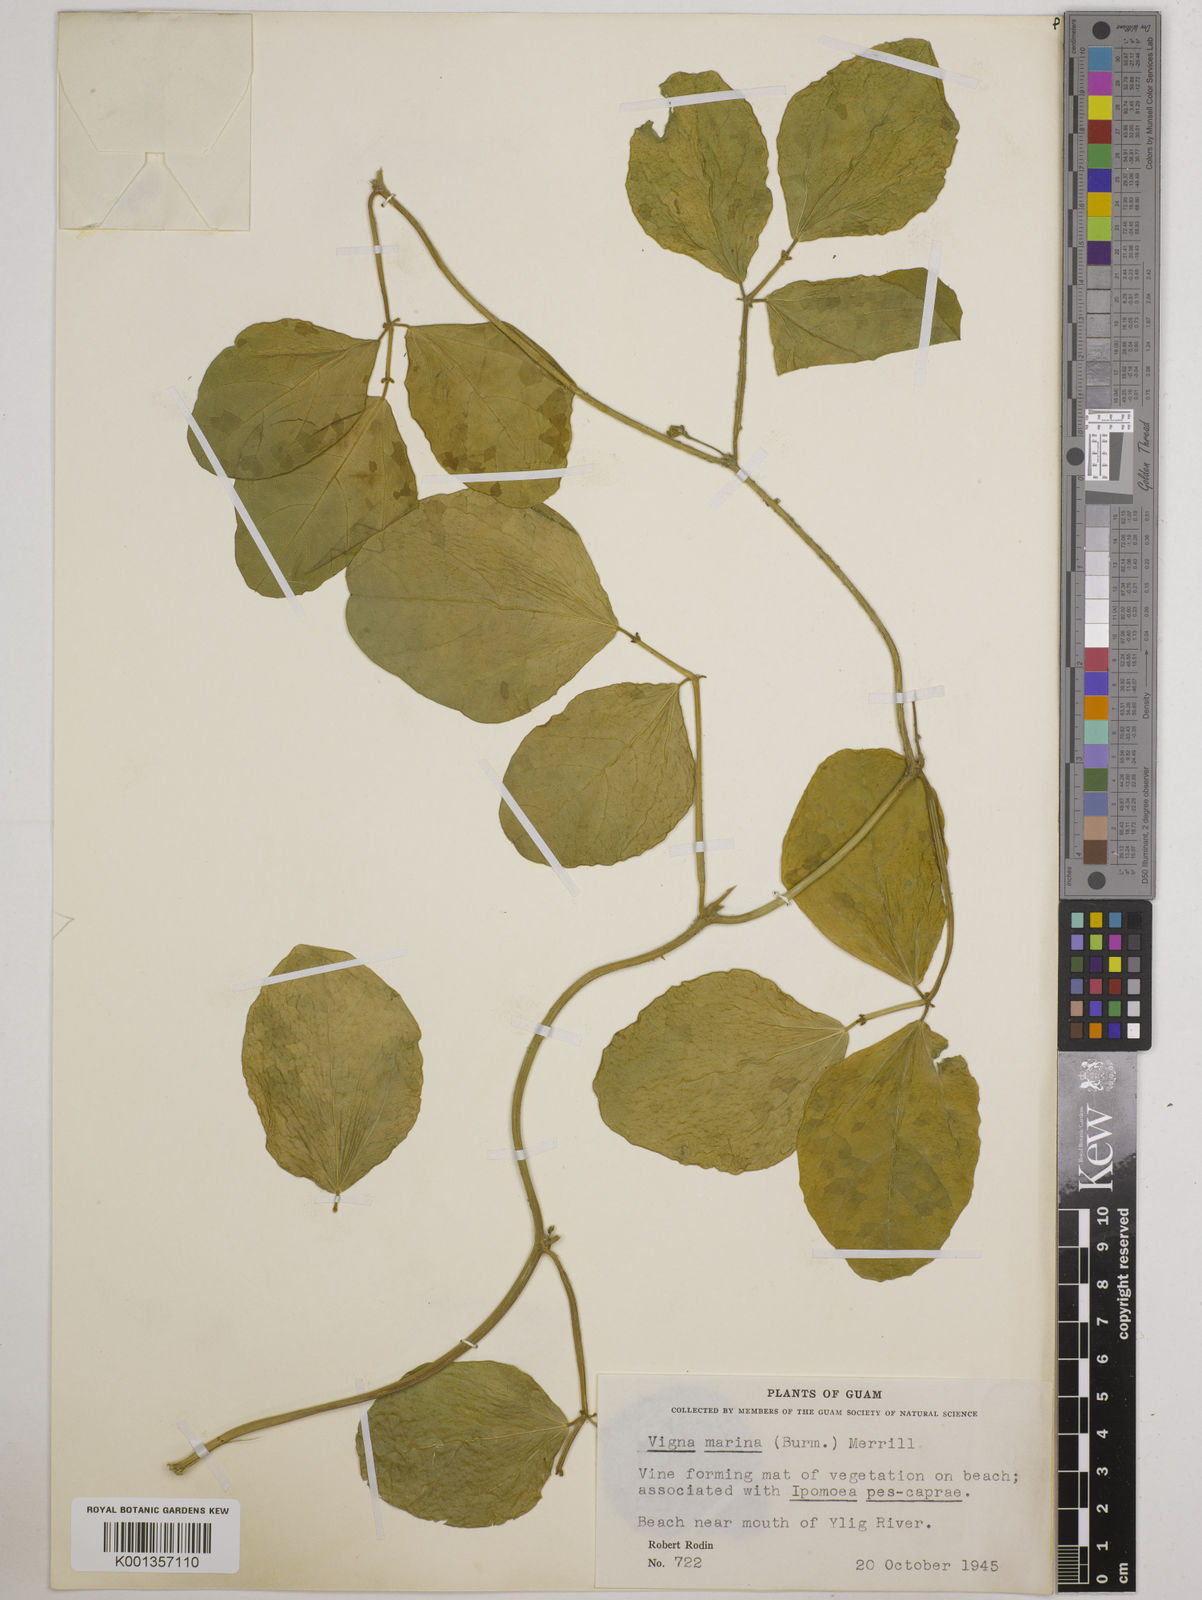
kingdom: Plantae
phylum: Tracheophyta
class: Magnoliopsida
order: Fabales
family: Fabaceae
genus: Vigna
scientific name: Vigna marina
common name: Dune-bean
